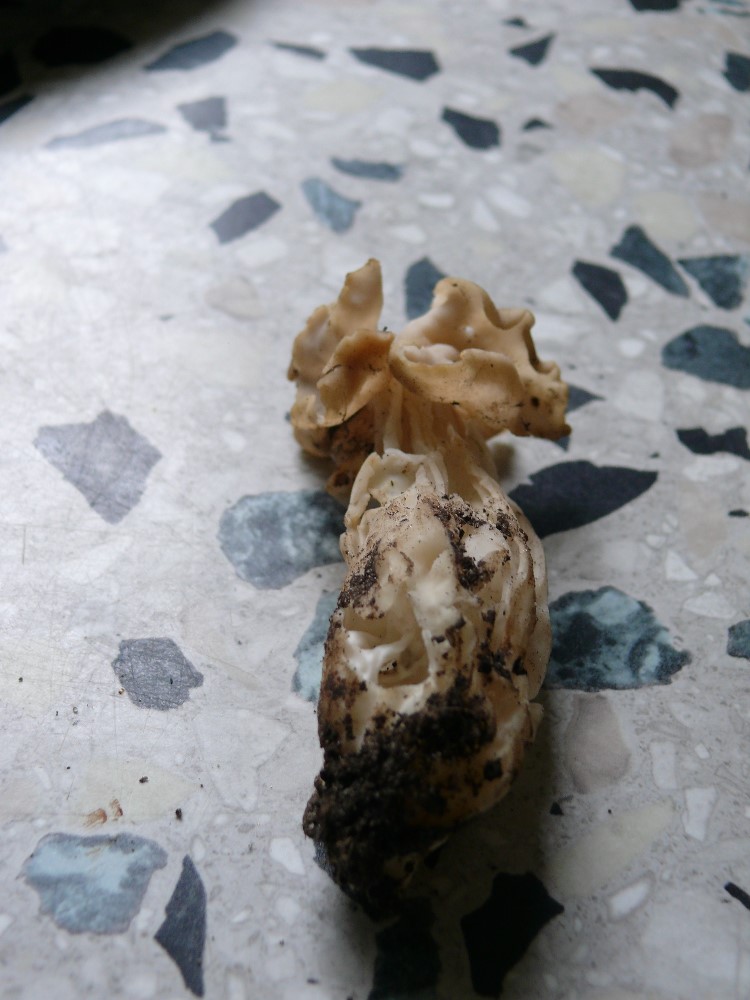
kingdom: Fungi
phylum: Ascomycota
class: Pezizomycetes
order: Pezizales
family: Helvellaceae
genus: Helvella
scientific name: Helvella crispa
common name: kruset foldhat
